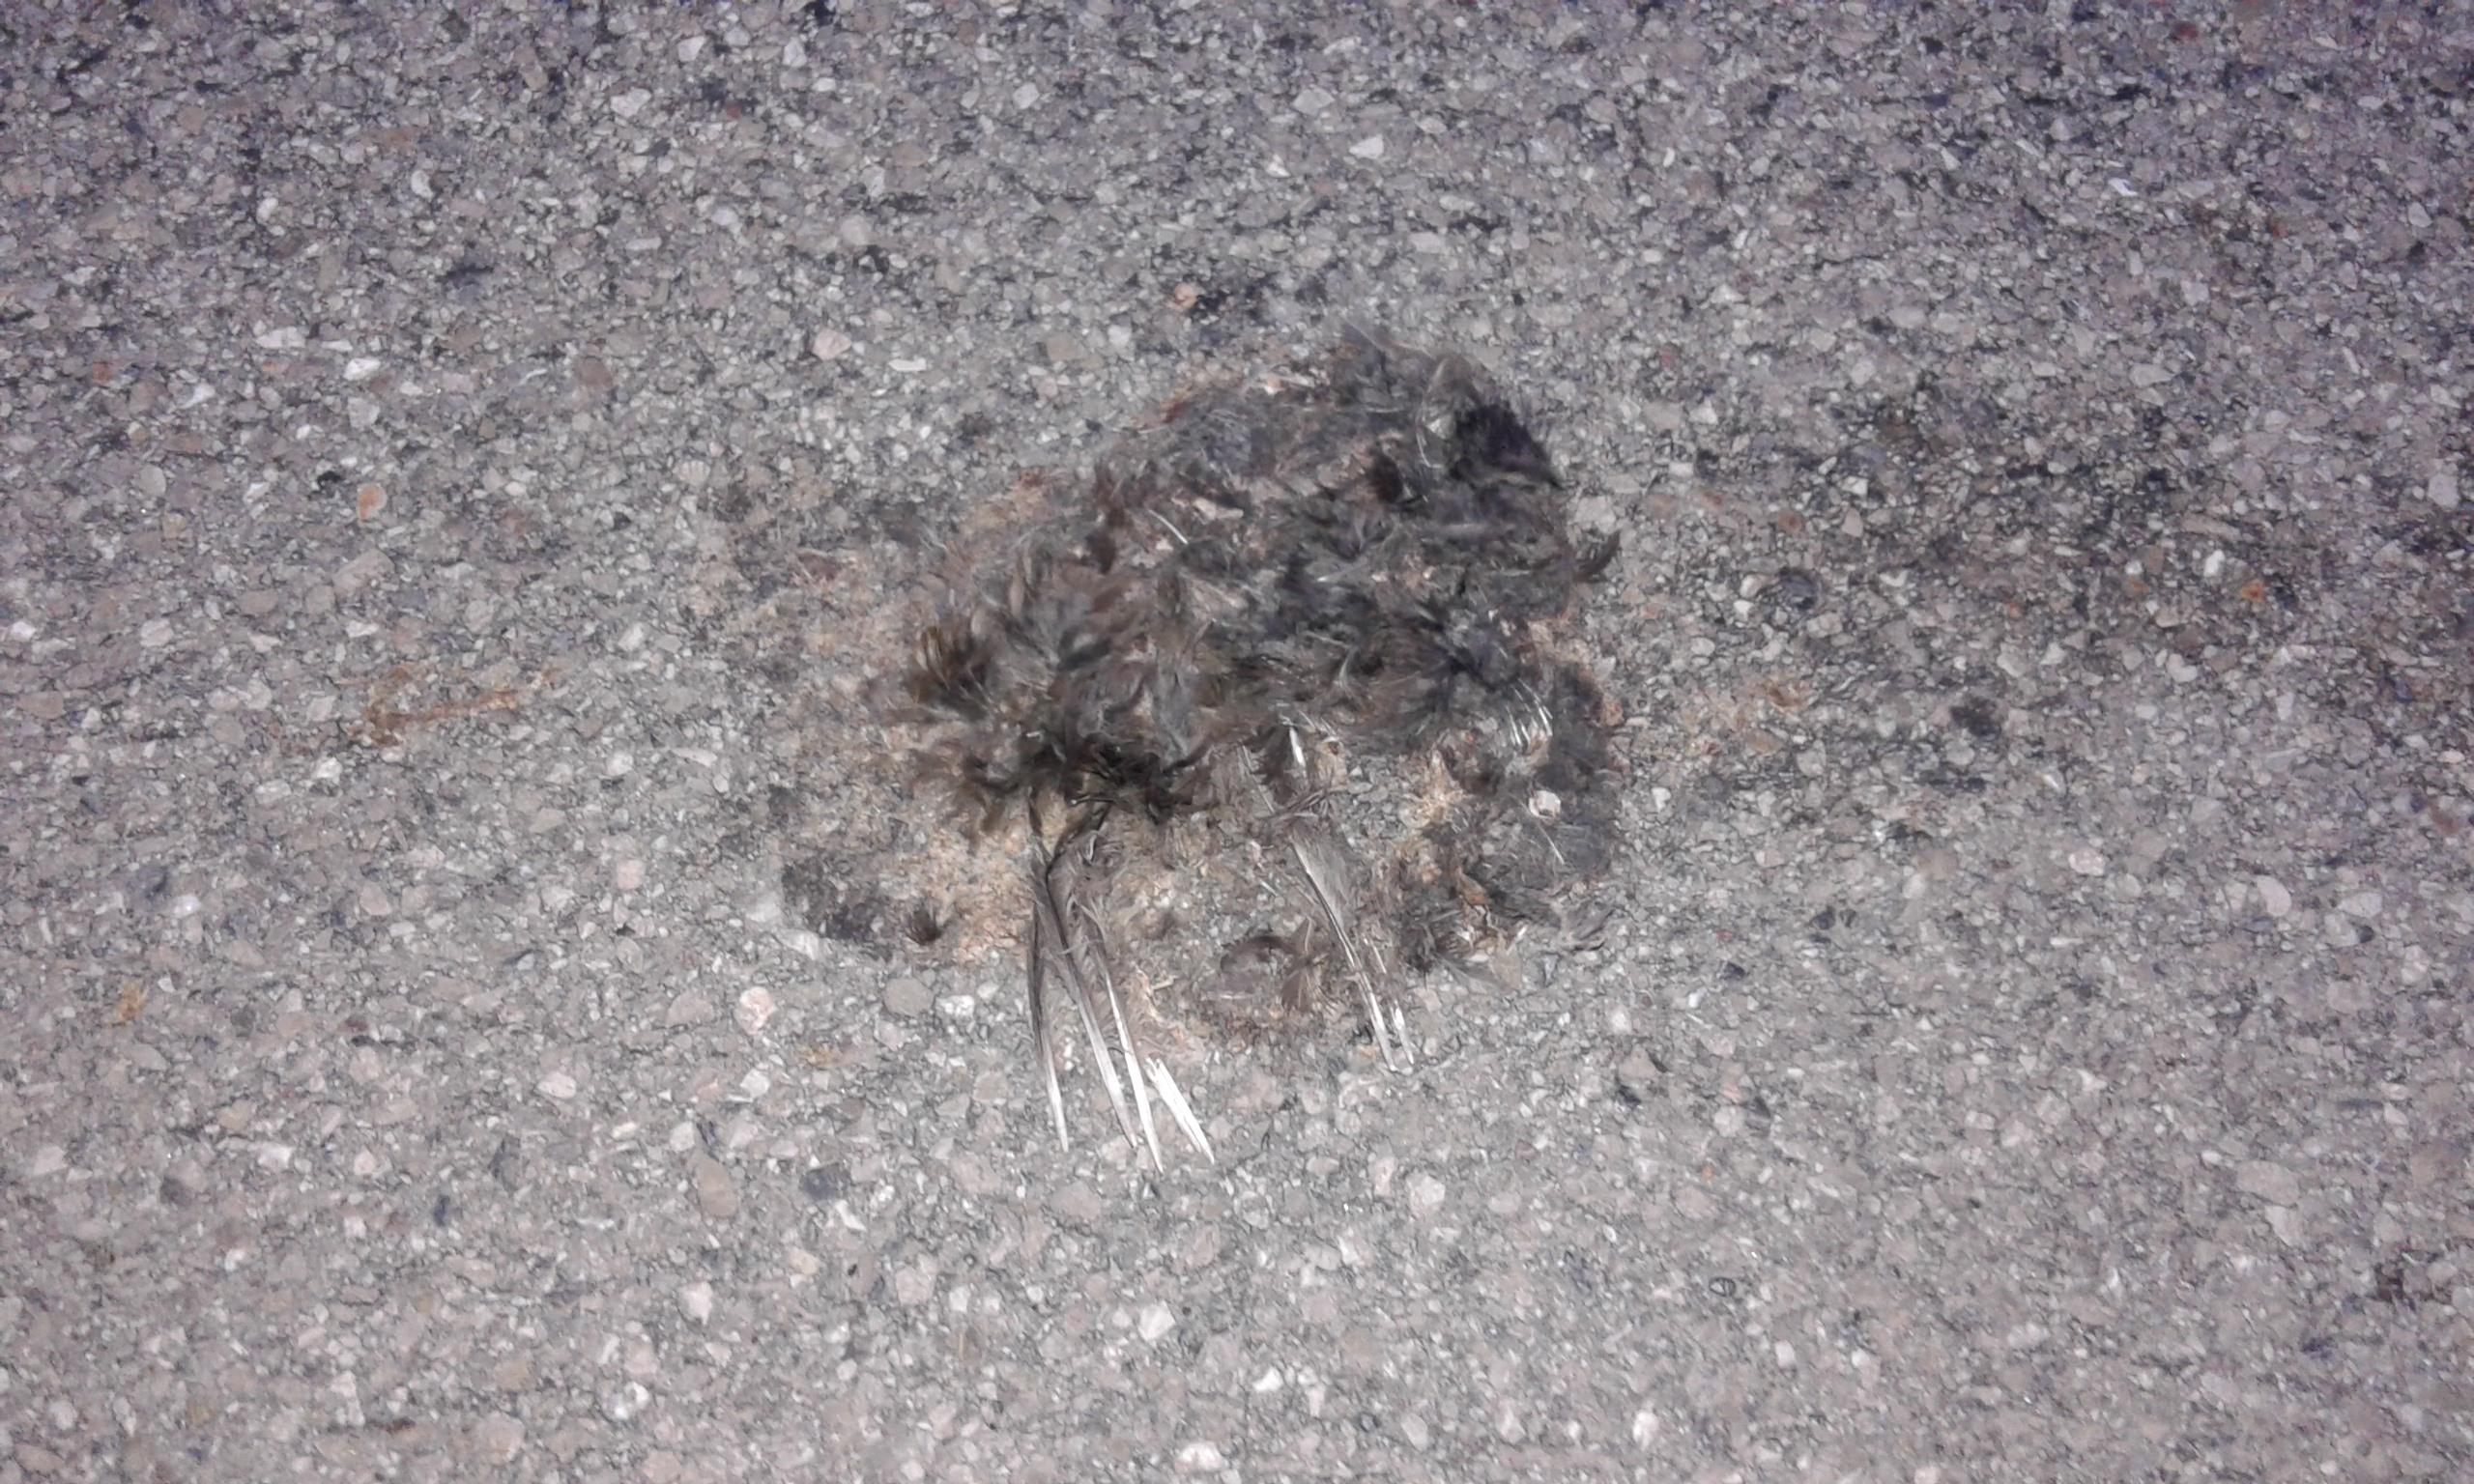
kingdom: Animalia
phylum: Chordata
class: Aves
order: Passeriformes
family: Turdidae
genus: Turdus
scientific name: Turdus merula
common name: Common blackbird
